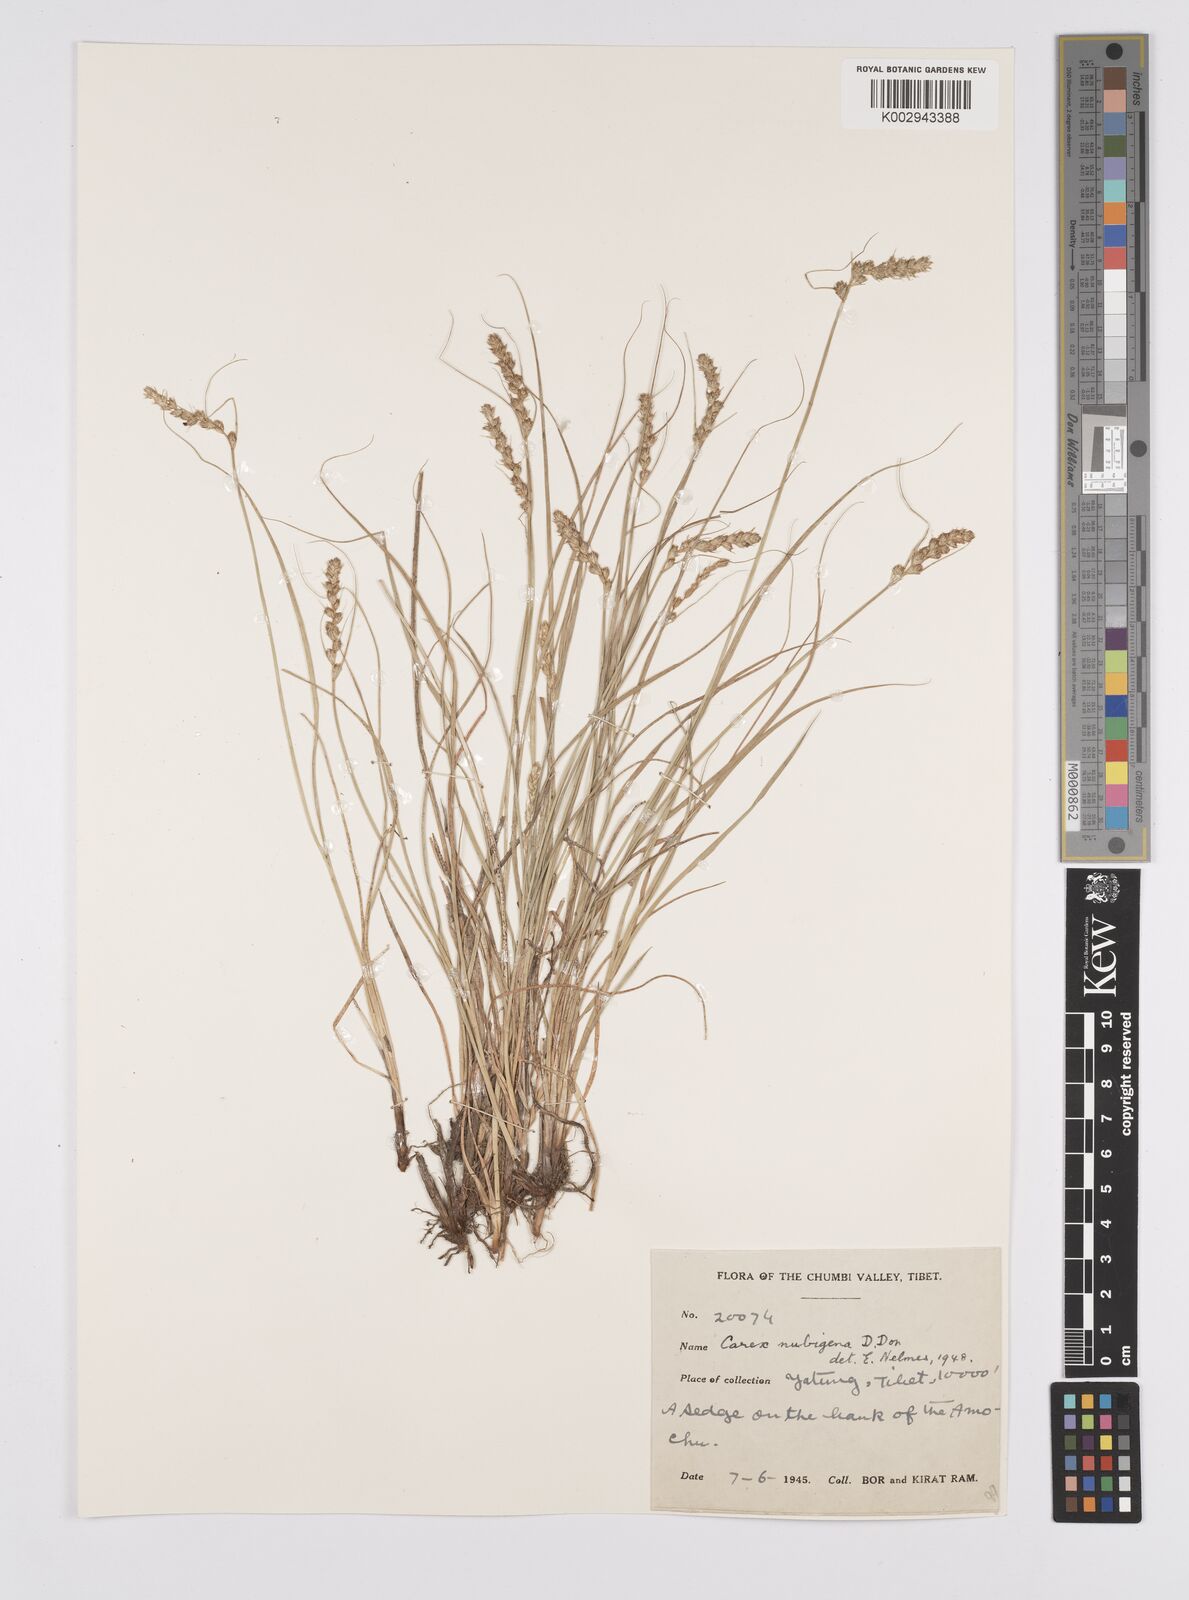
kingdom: Plantae
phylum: Tracheophyta
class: Liliopsida
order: Poales
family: Cyperaceae
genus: Carex
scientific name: Carex nubigena
